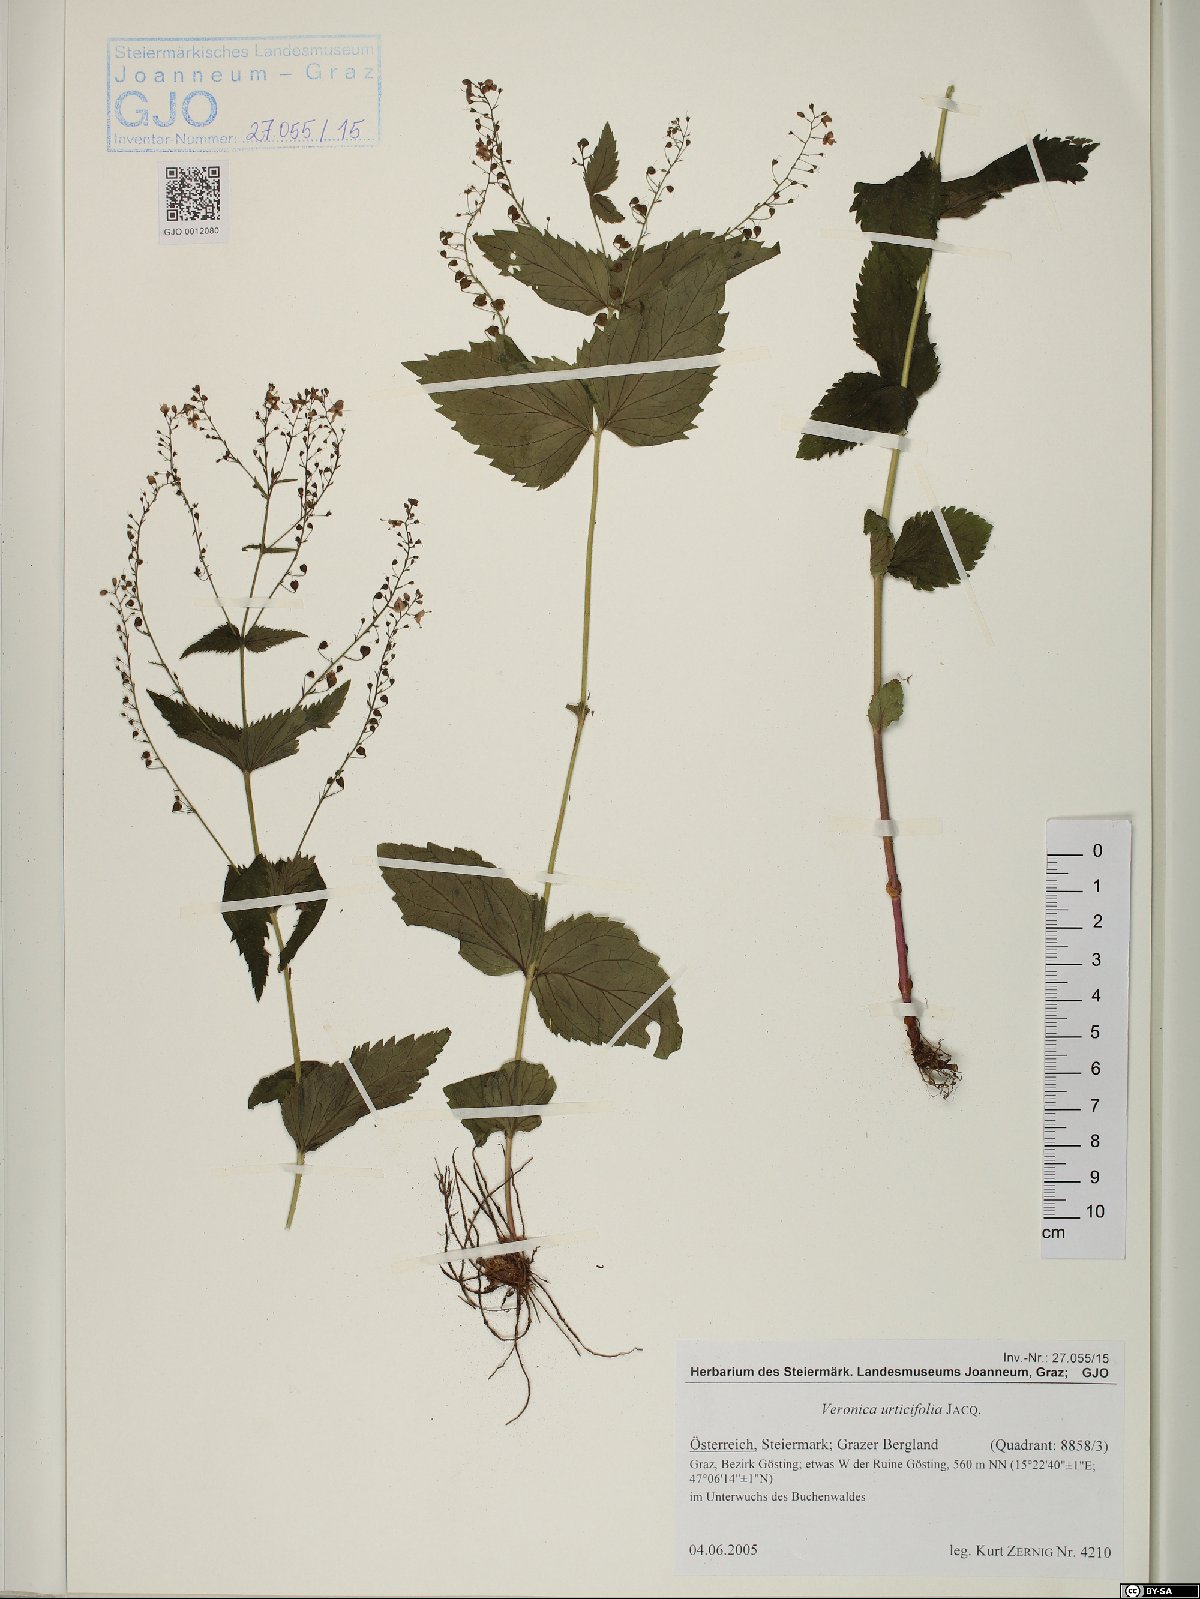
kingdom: Plantae
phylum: Tracheophyta
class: Magnoliopsida
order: Lamiales
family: Plantaginaceae
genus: Veronica
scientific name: Veronica urticifolia
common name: Nettle-leaf speedwell
